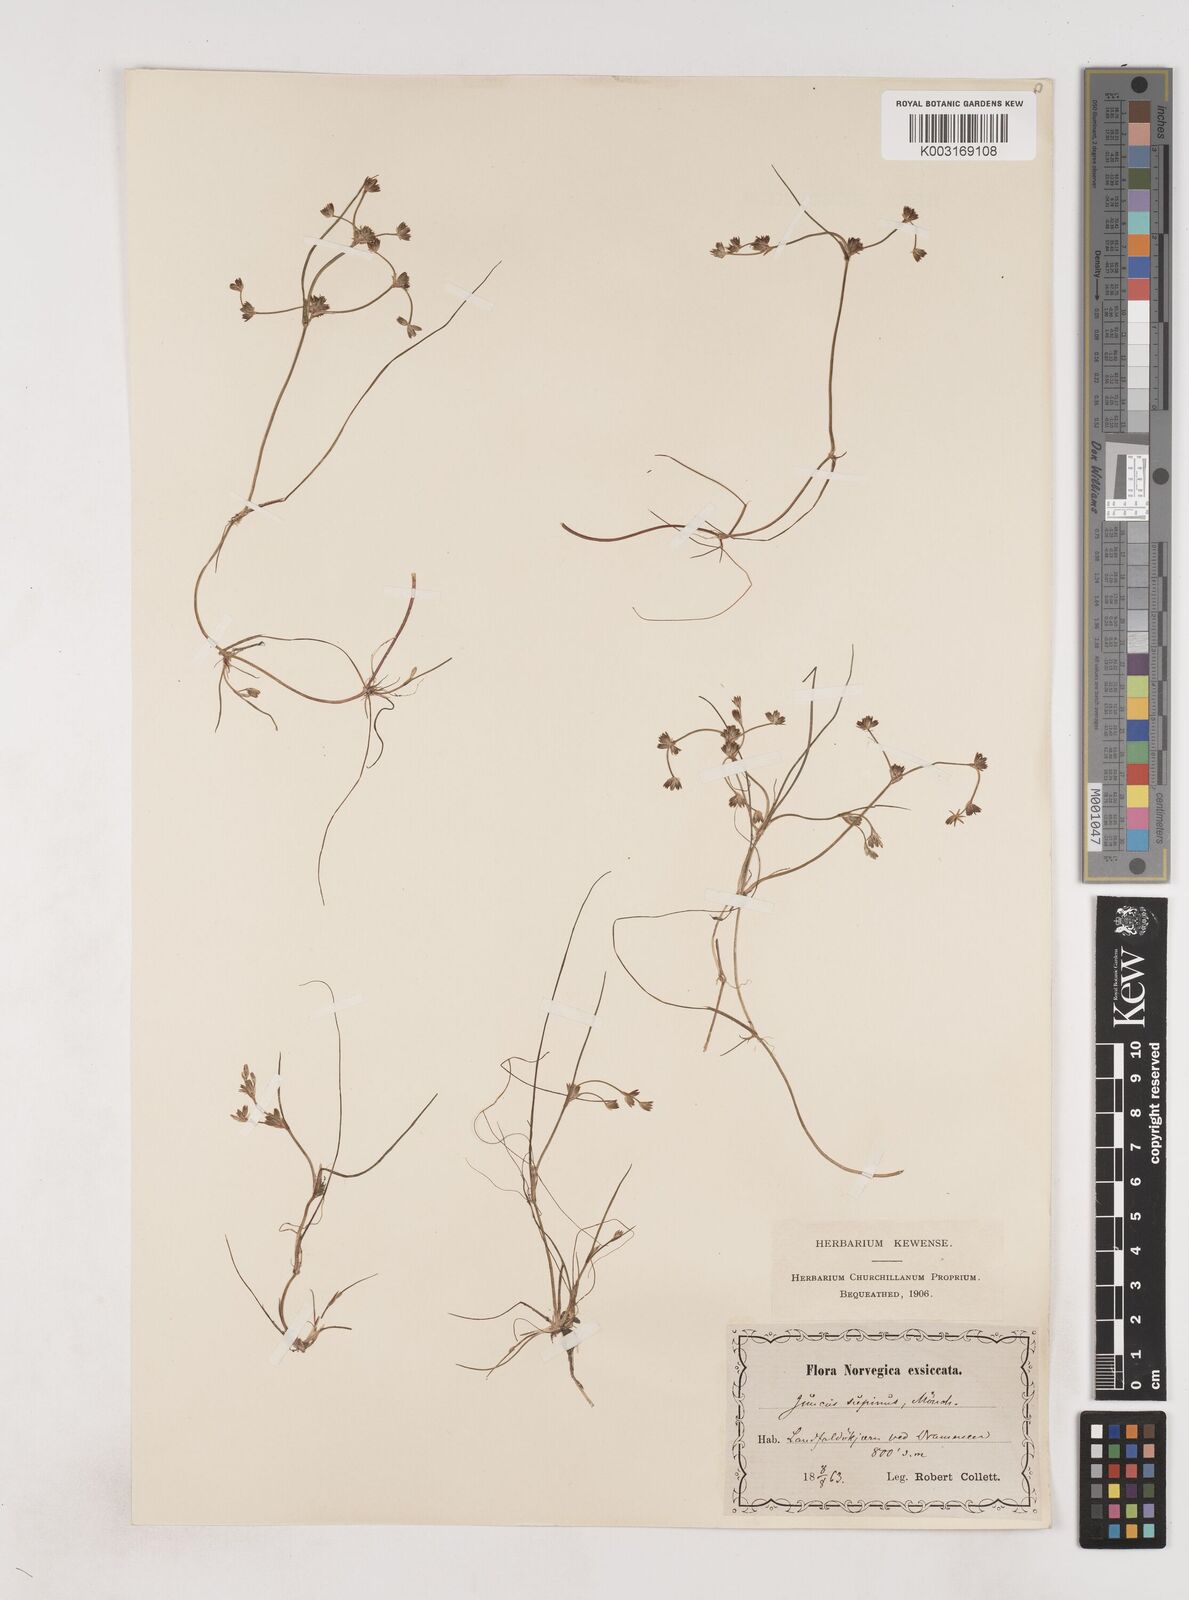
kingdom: Plantae
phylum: Tracheophyta
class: Liliopsida
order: Poales
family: Juncaceae
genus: Juncus
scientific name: Juncus bulbosus
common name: Bulbous rush
